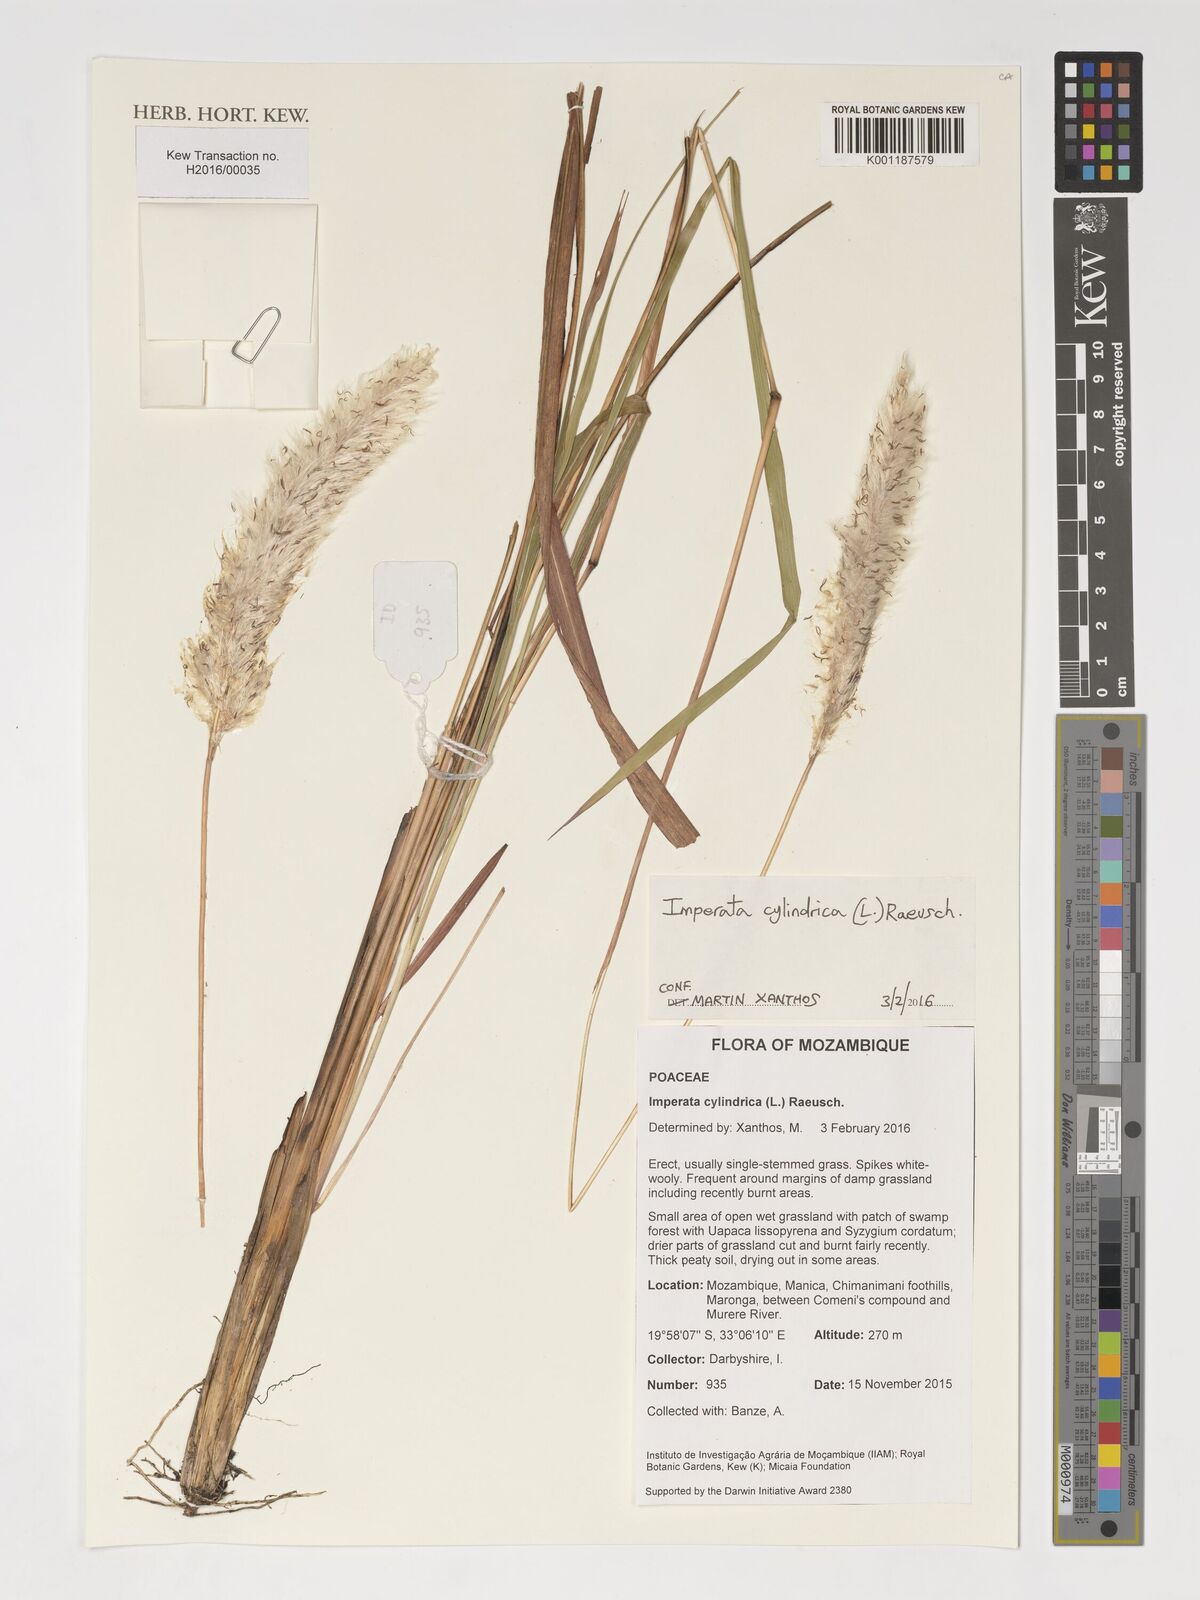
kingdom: Plantae
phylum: Tracheophyta
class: Liliopsida
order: Poales
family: Poaceae
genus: Imperata
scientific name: Imperata cylindrica
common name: Cogongrass
